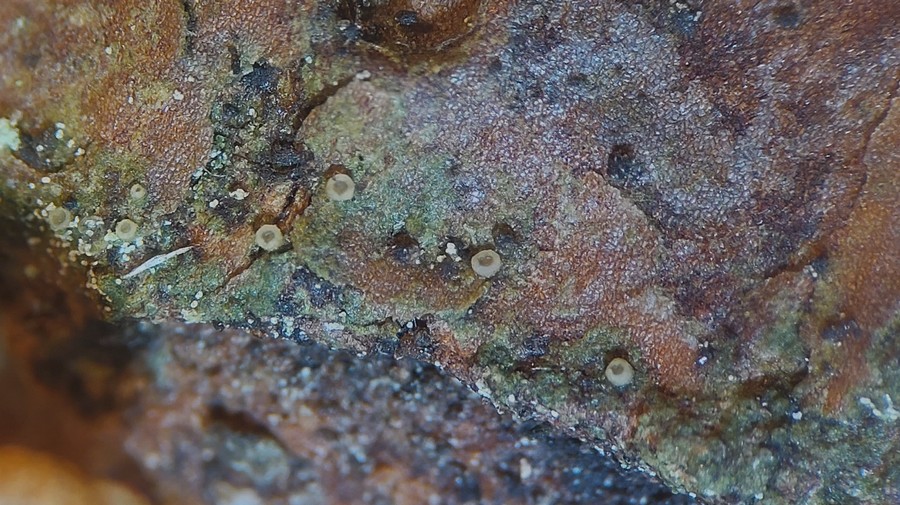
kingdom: Fungi
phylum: Ascomycota
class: Lecanoromycetes
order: Ostropales
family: Coenogoniaceae
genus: Coenogonium
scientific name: Coenogonium pineti
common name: liden vokslav
